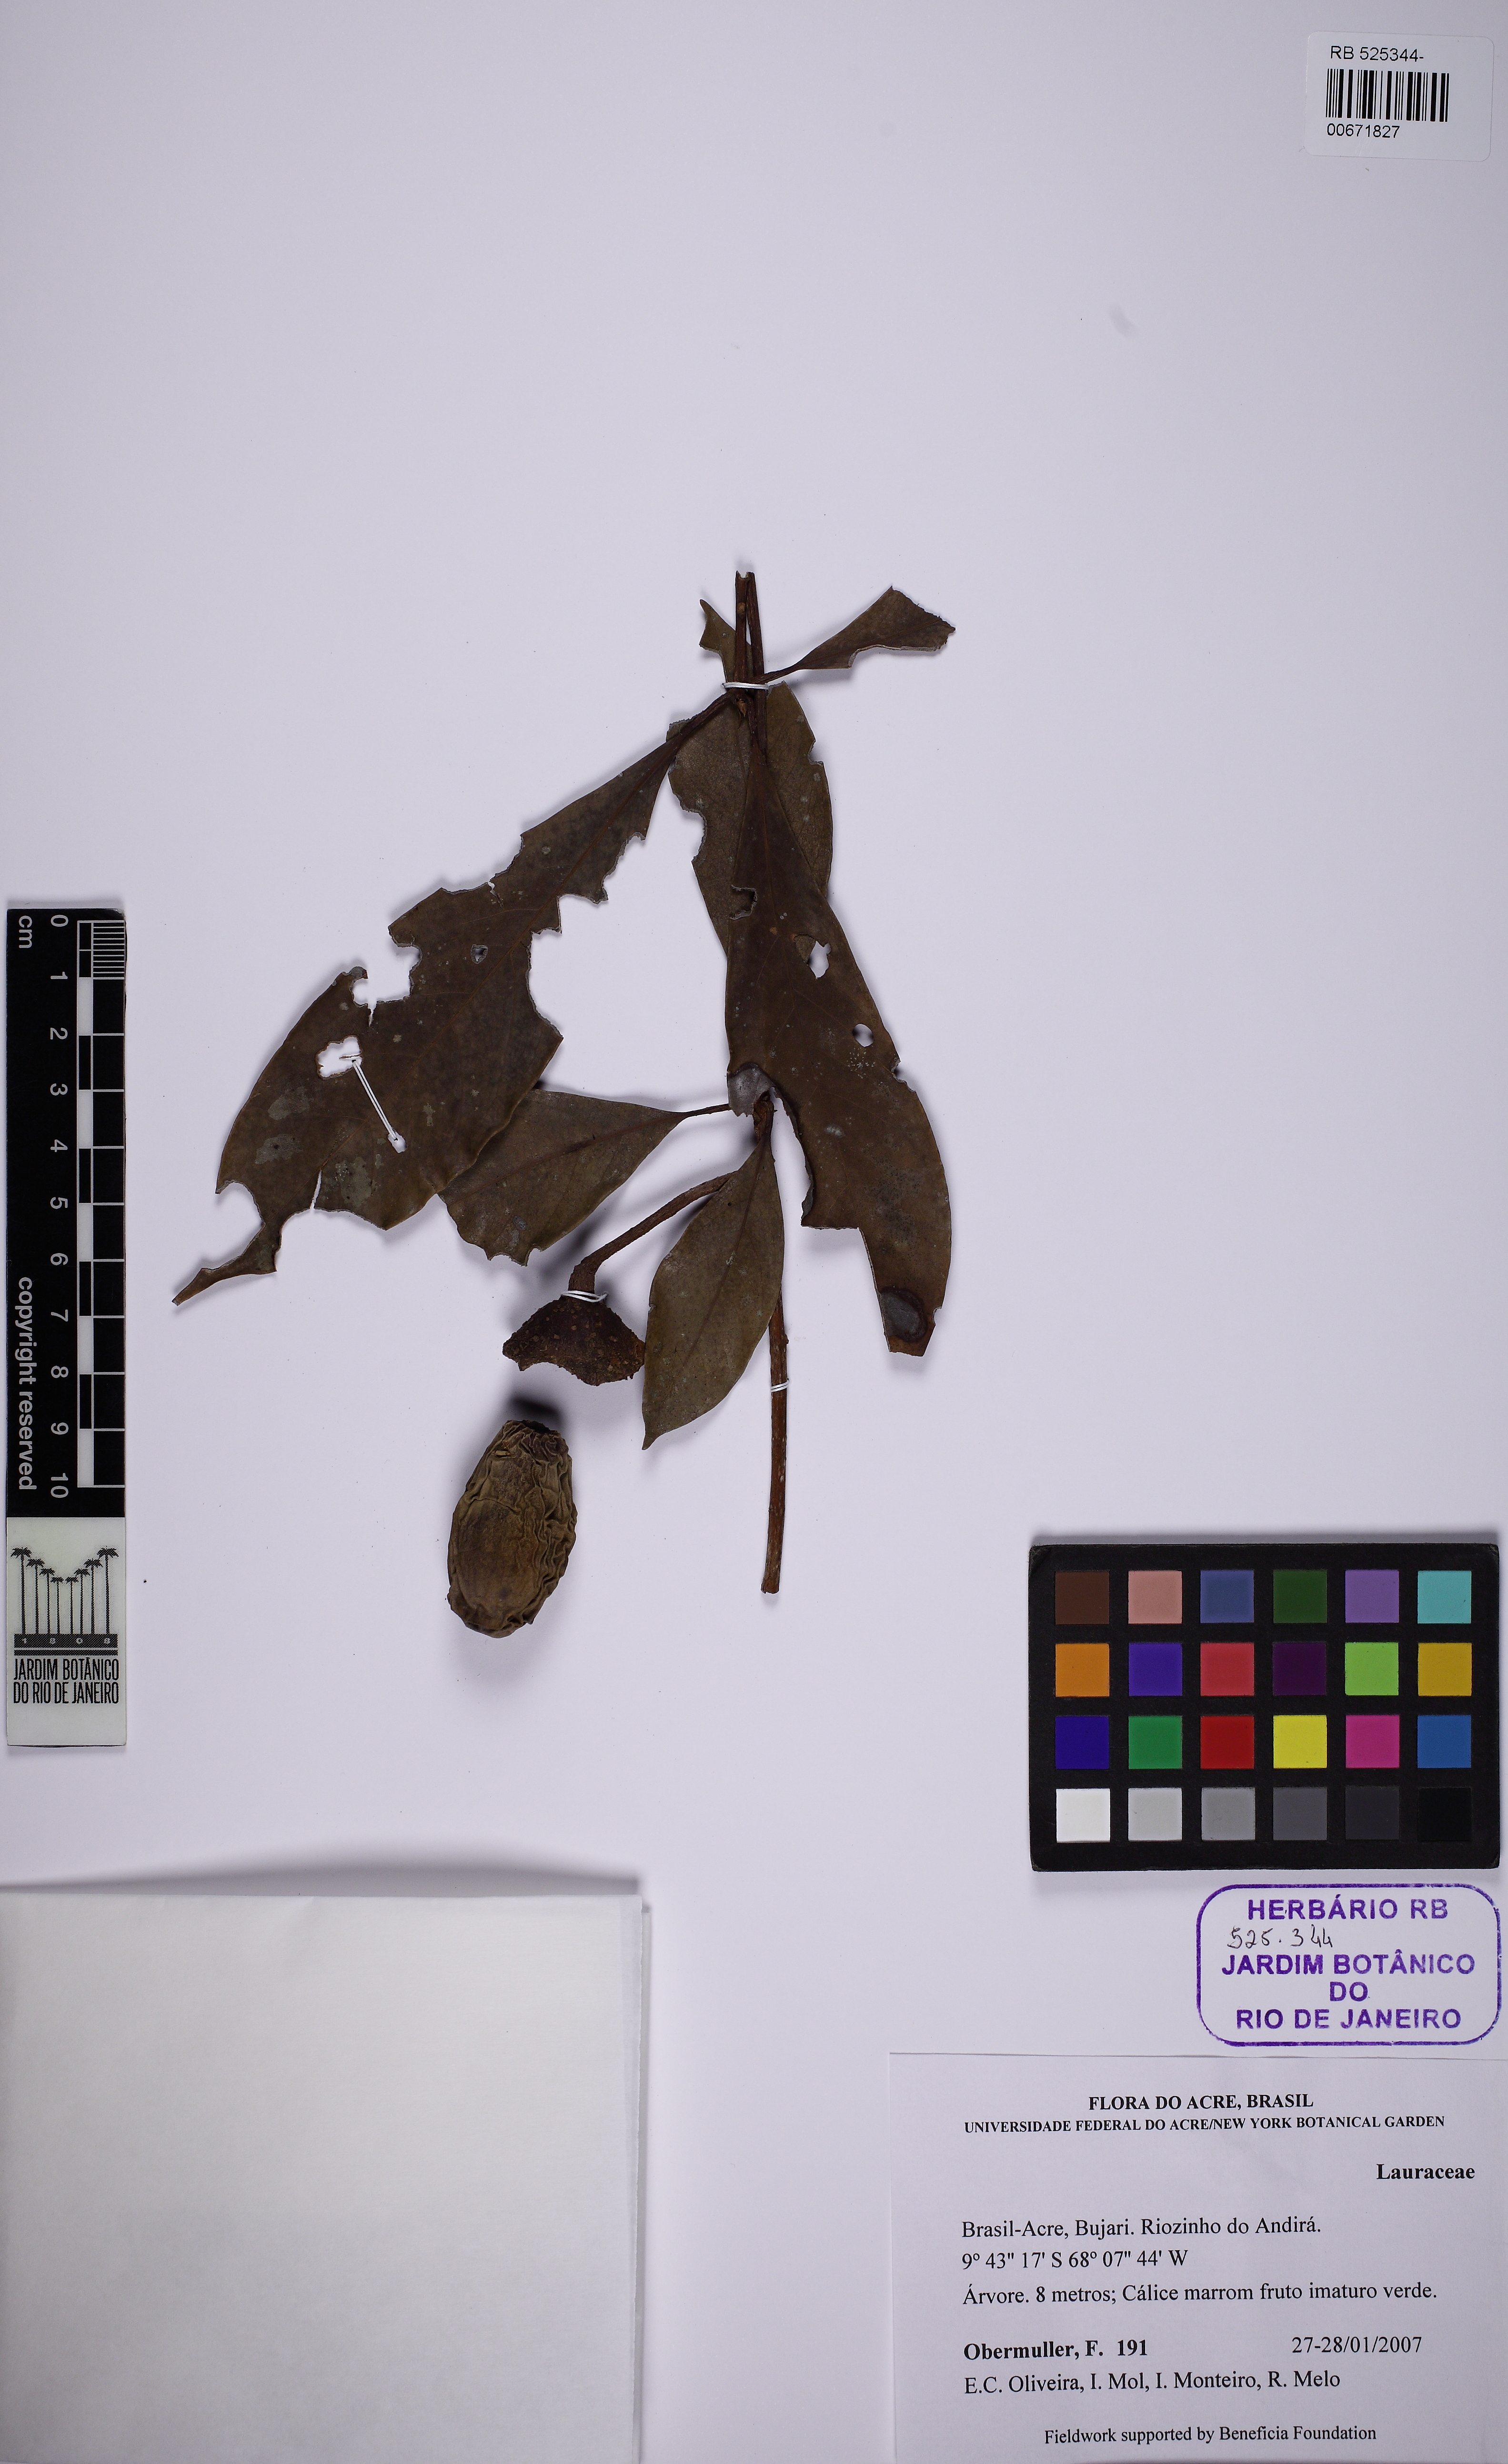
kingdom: Plantae
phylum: Tracheophyta
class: Magnoliopsida
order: Laurales
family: Lauraceae
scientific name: Lauraceae
